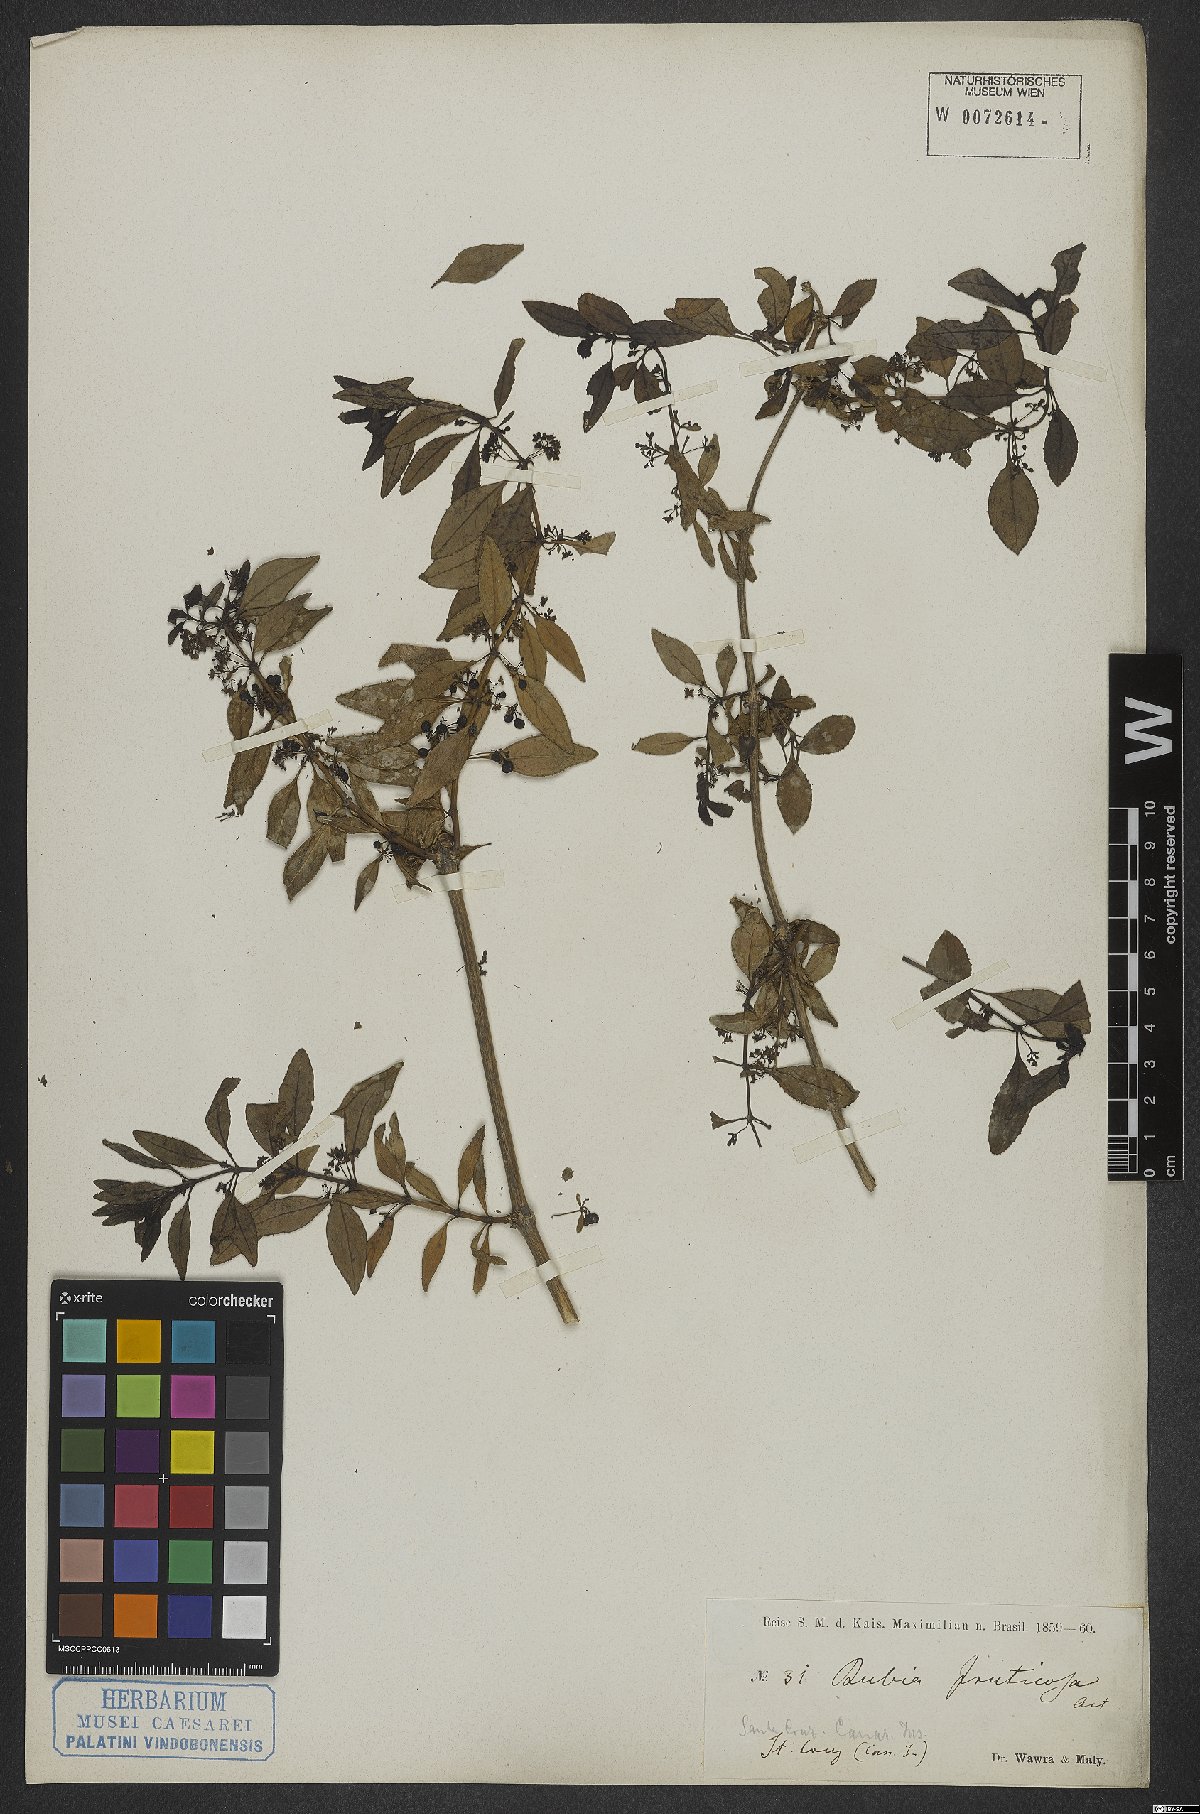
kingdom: Plantae
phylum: Tracheophyta
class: Magnoliopsida
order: Gentianales
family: Rubiaceae
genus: Rubia
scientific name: Rubia fruticosa
